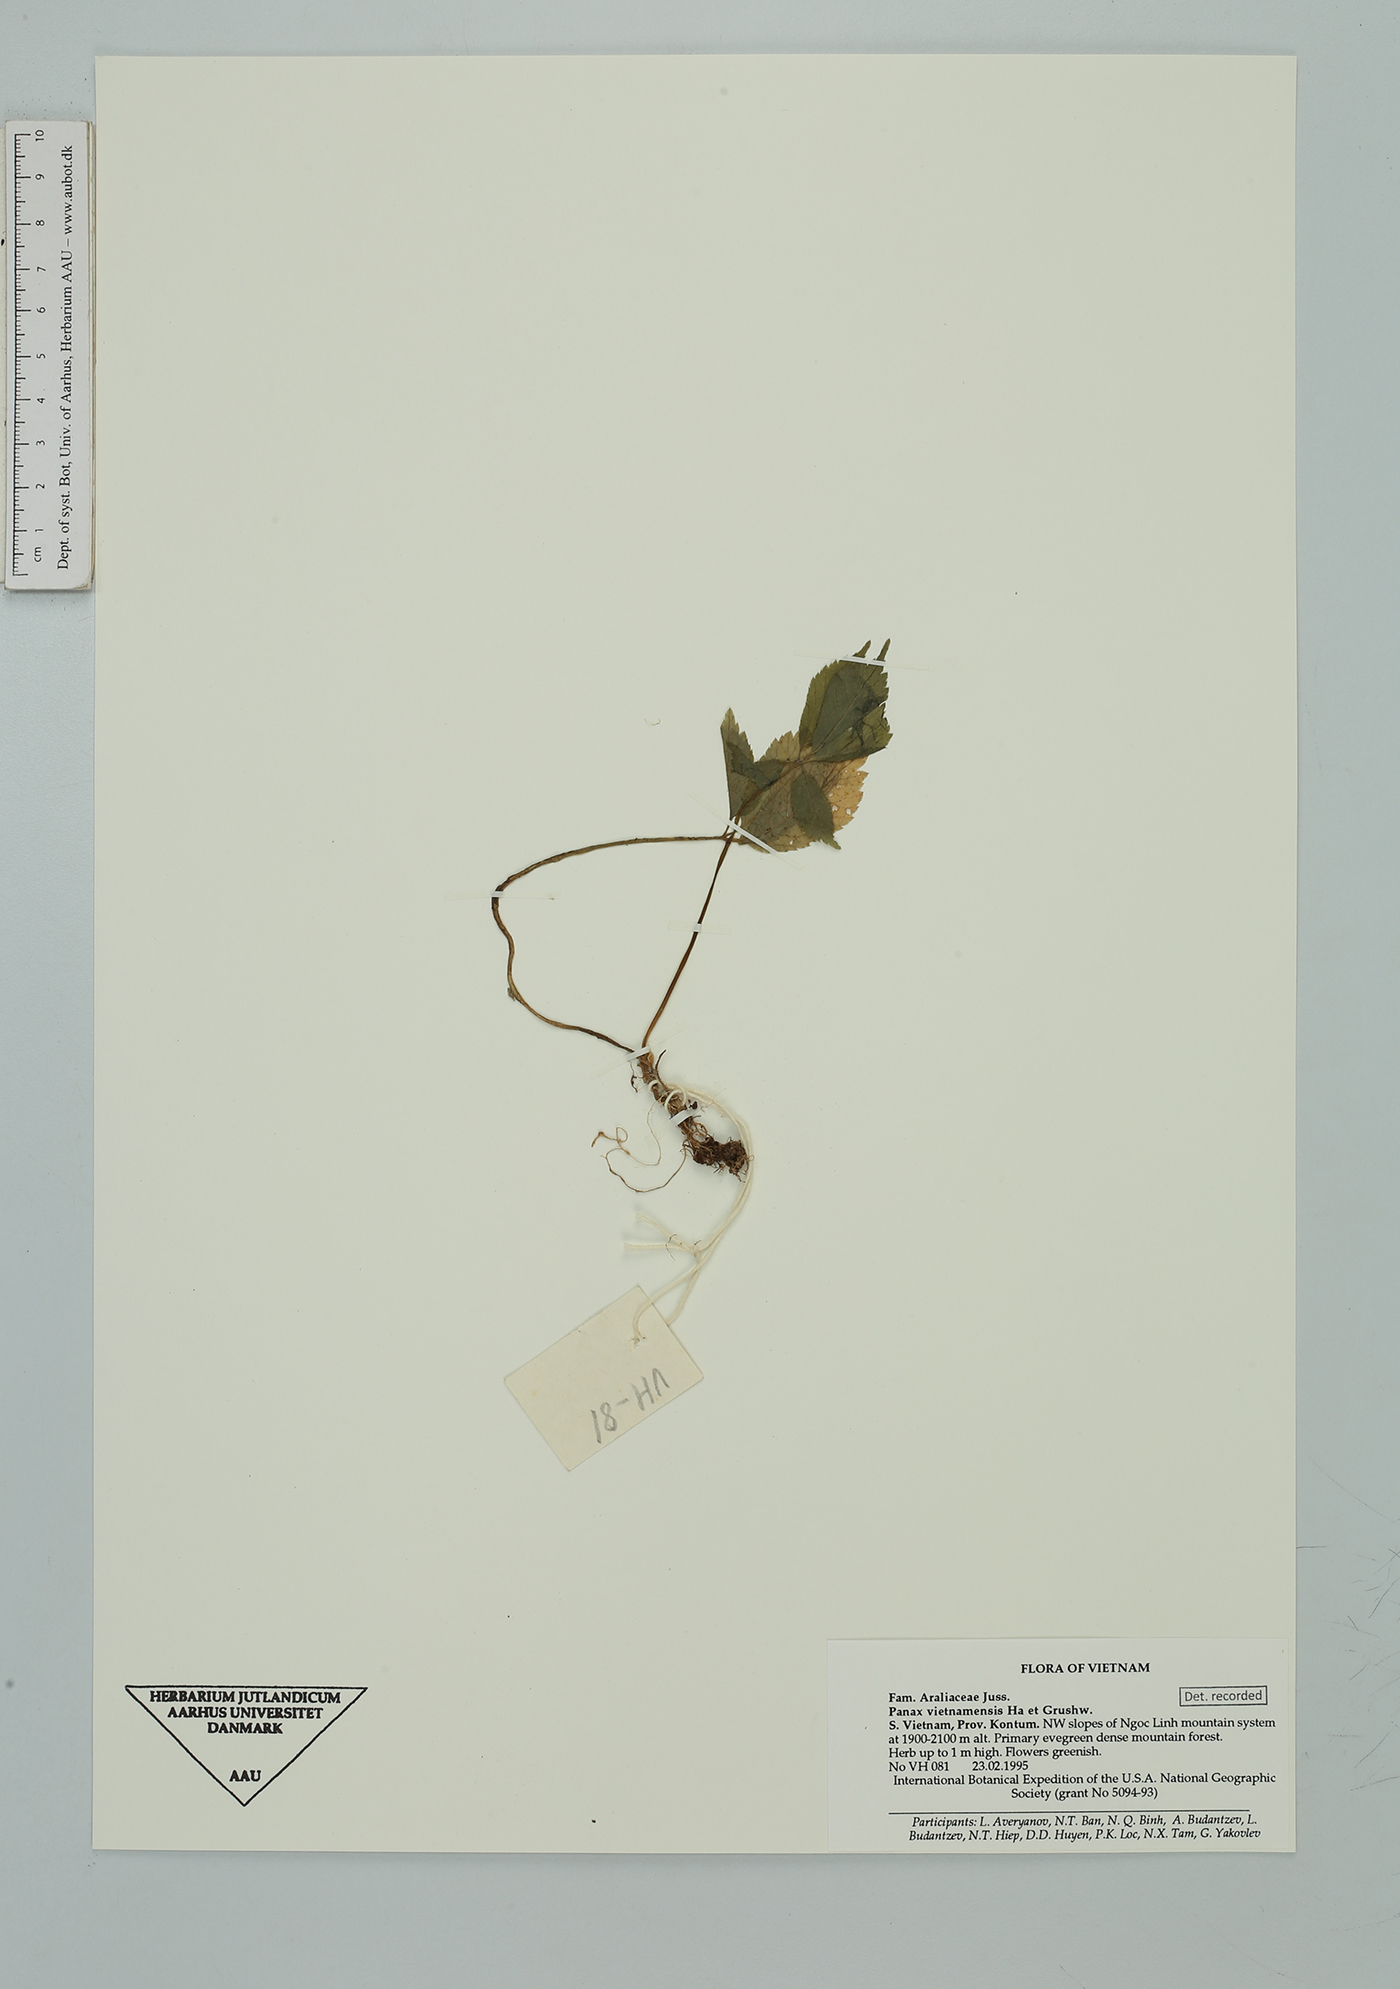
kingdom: Plantae
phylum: Tracheophyta
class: Magnoliopsida
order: Apiales
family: Araliaceae
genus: Panax
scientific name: Panax vietnamensis
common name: Bamboo ginseng
